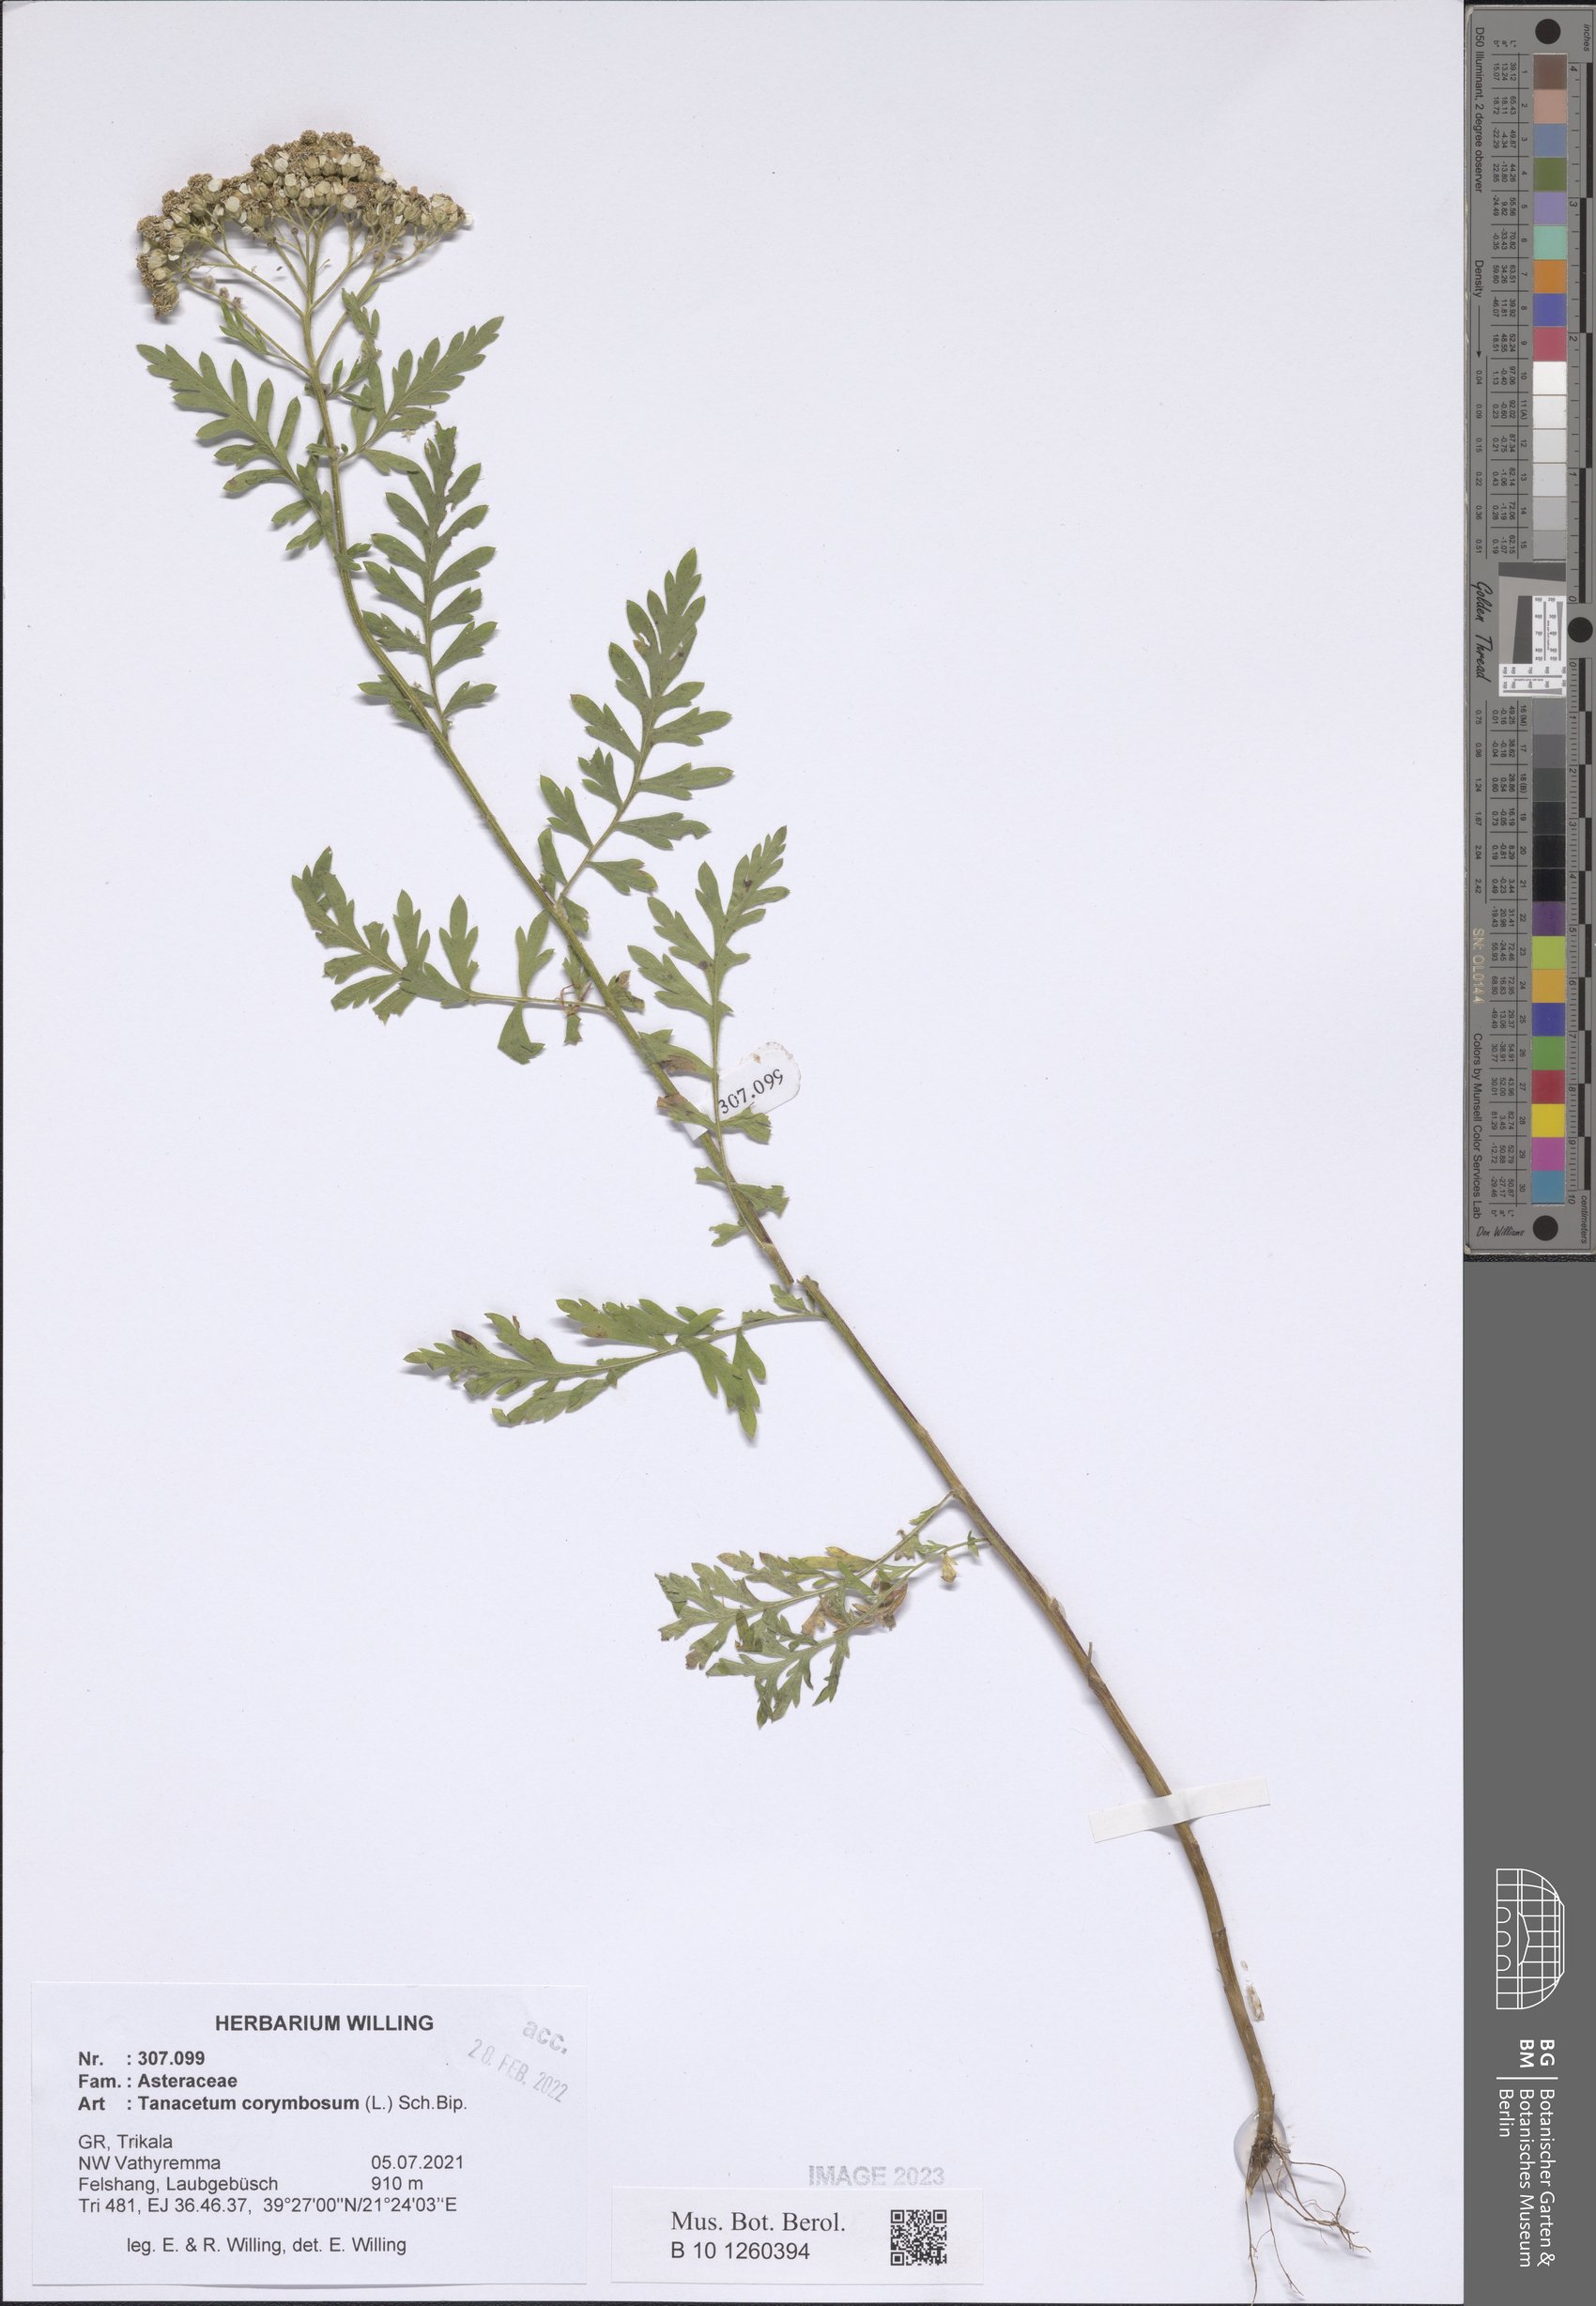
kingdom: Plantae
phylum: Tracheophyta
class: Magnoliopsida
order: Asterales
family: Asteraceae
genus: Tanacetum
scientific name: Tanacetum corymbosum
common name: Scentless feverfew
